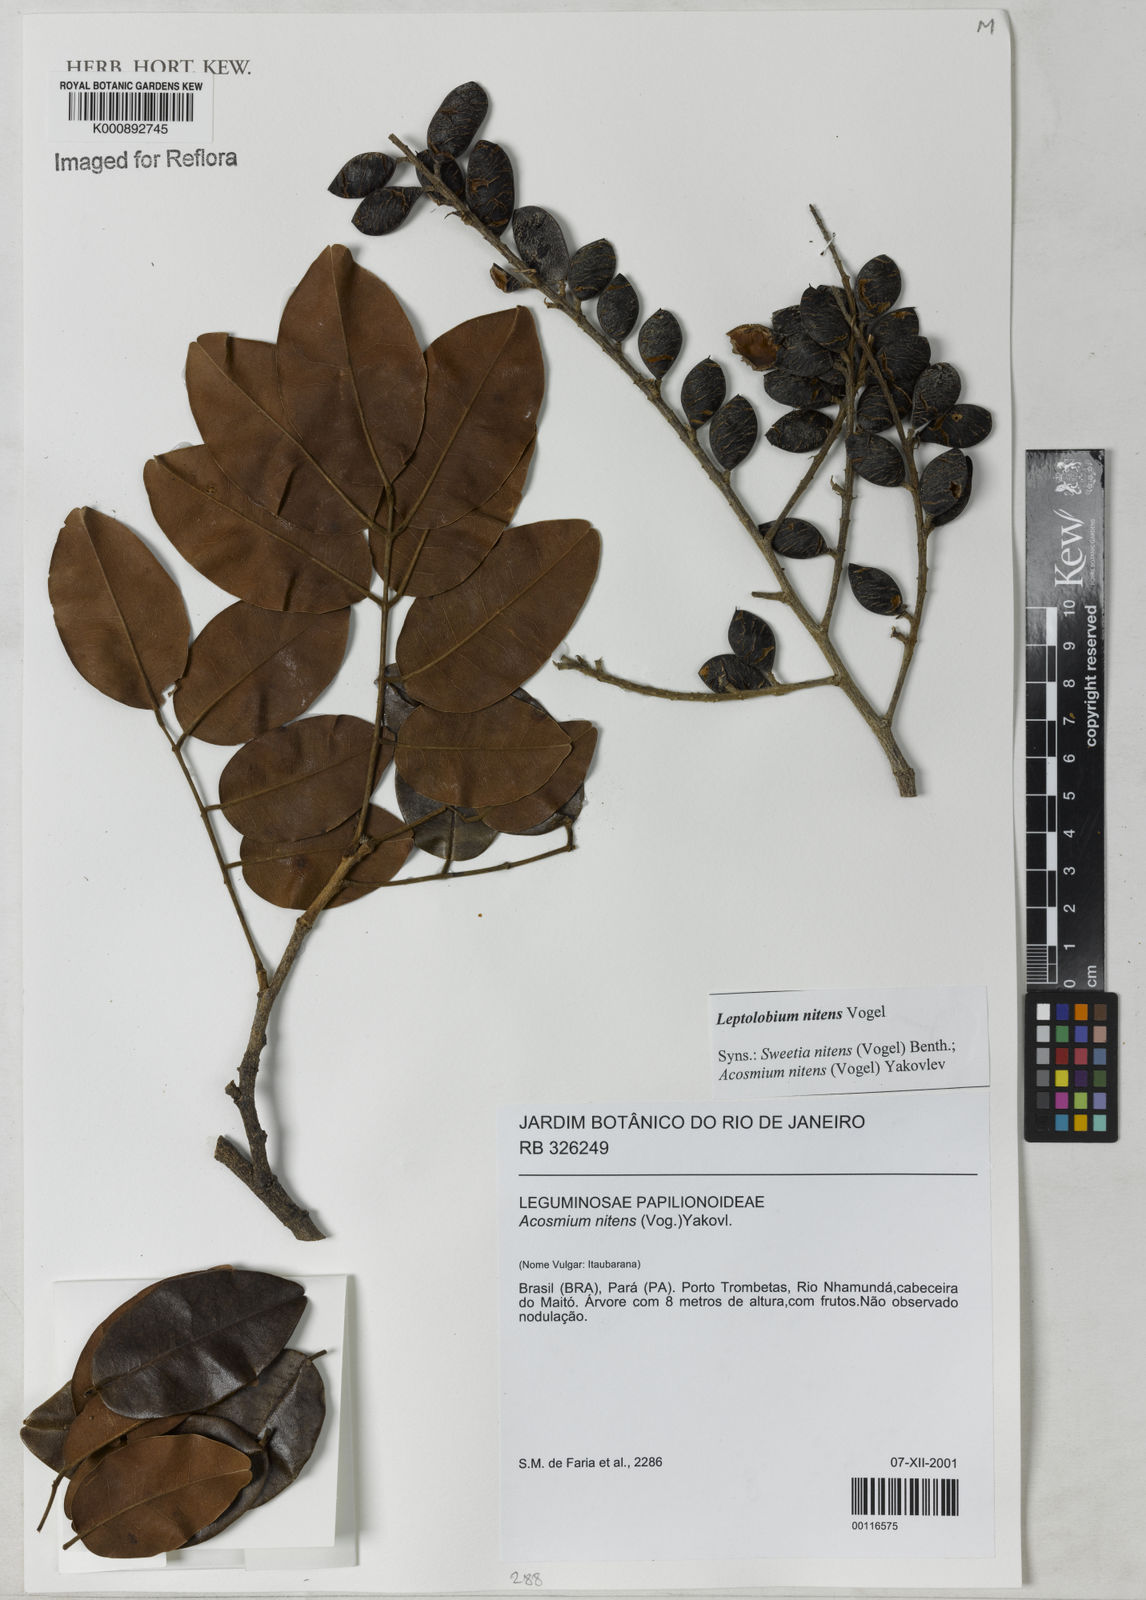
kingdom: Plantae
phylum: Tracheophyta
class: Magnoliopsida
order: Fabales
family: Fabaceae
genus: Leptolobium
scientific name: Leptolobium nitens
